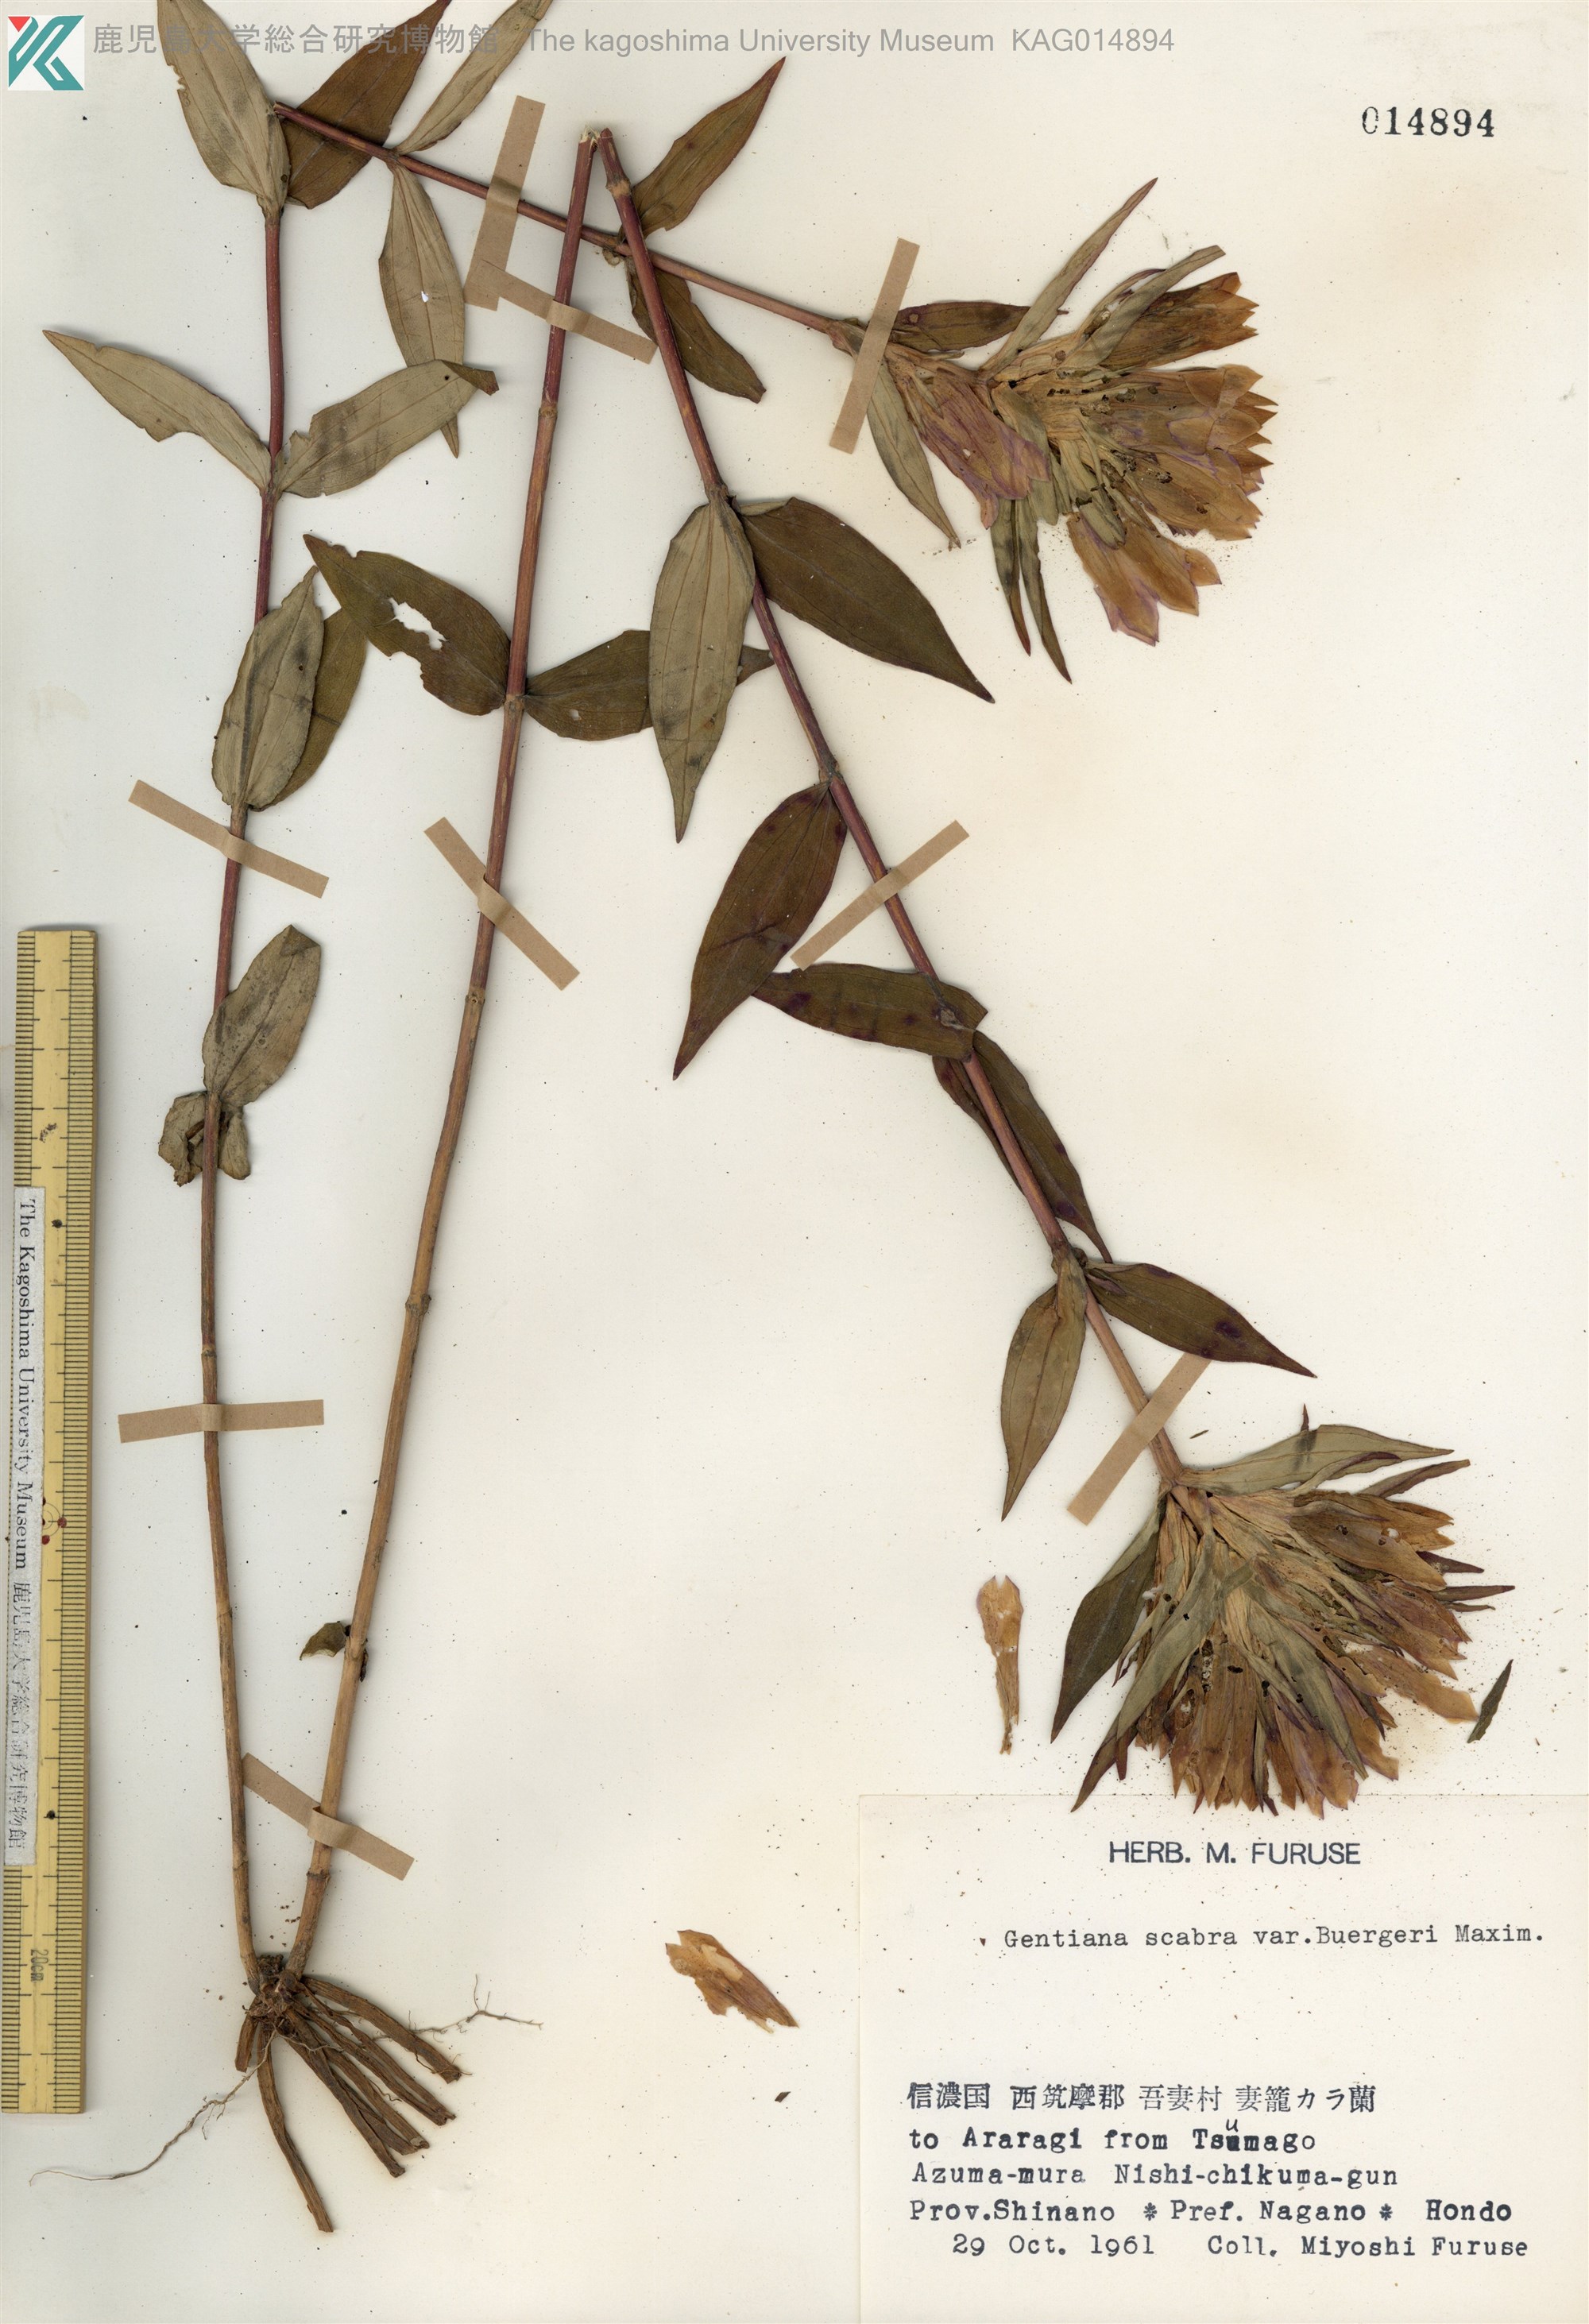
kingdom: Plantae
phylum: Tracheophyta
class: Magnoliopsida
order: Gentianales
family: Gentianaceae
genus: Gentiana
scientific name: Gentiana scabra
